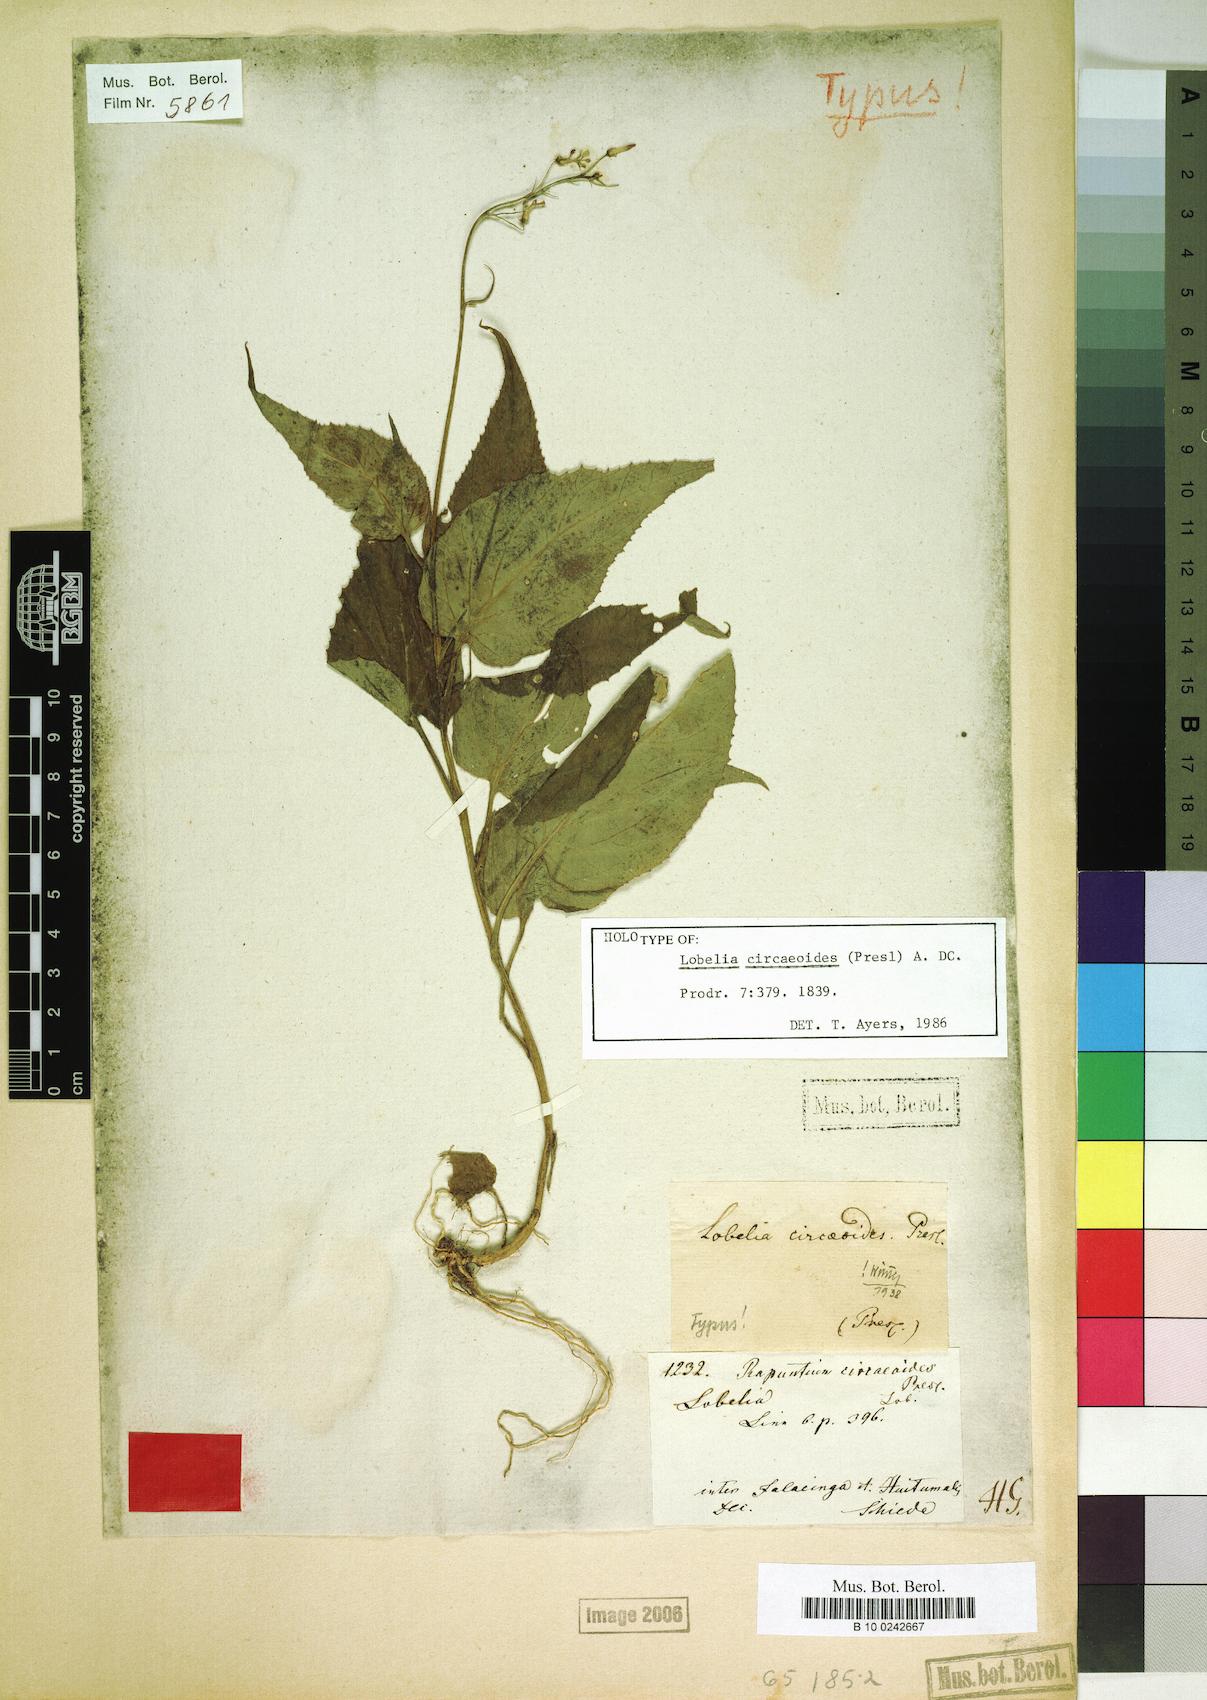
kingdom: Plantae
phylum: Tracheophyta
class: Magnoliopsida
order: Asterales
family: Campanulaceae
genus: Lobelia
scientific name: Lobelia circaeoides
